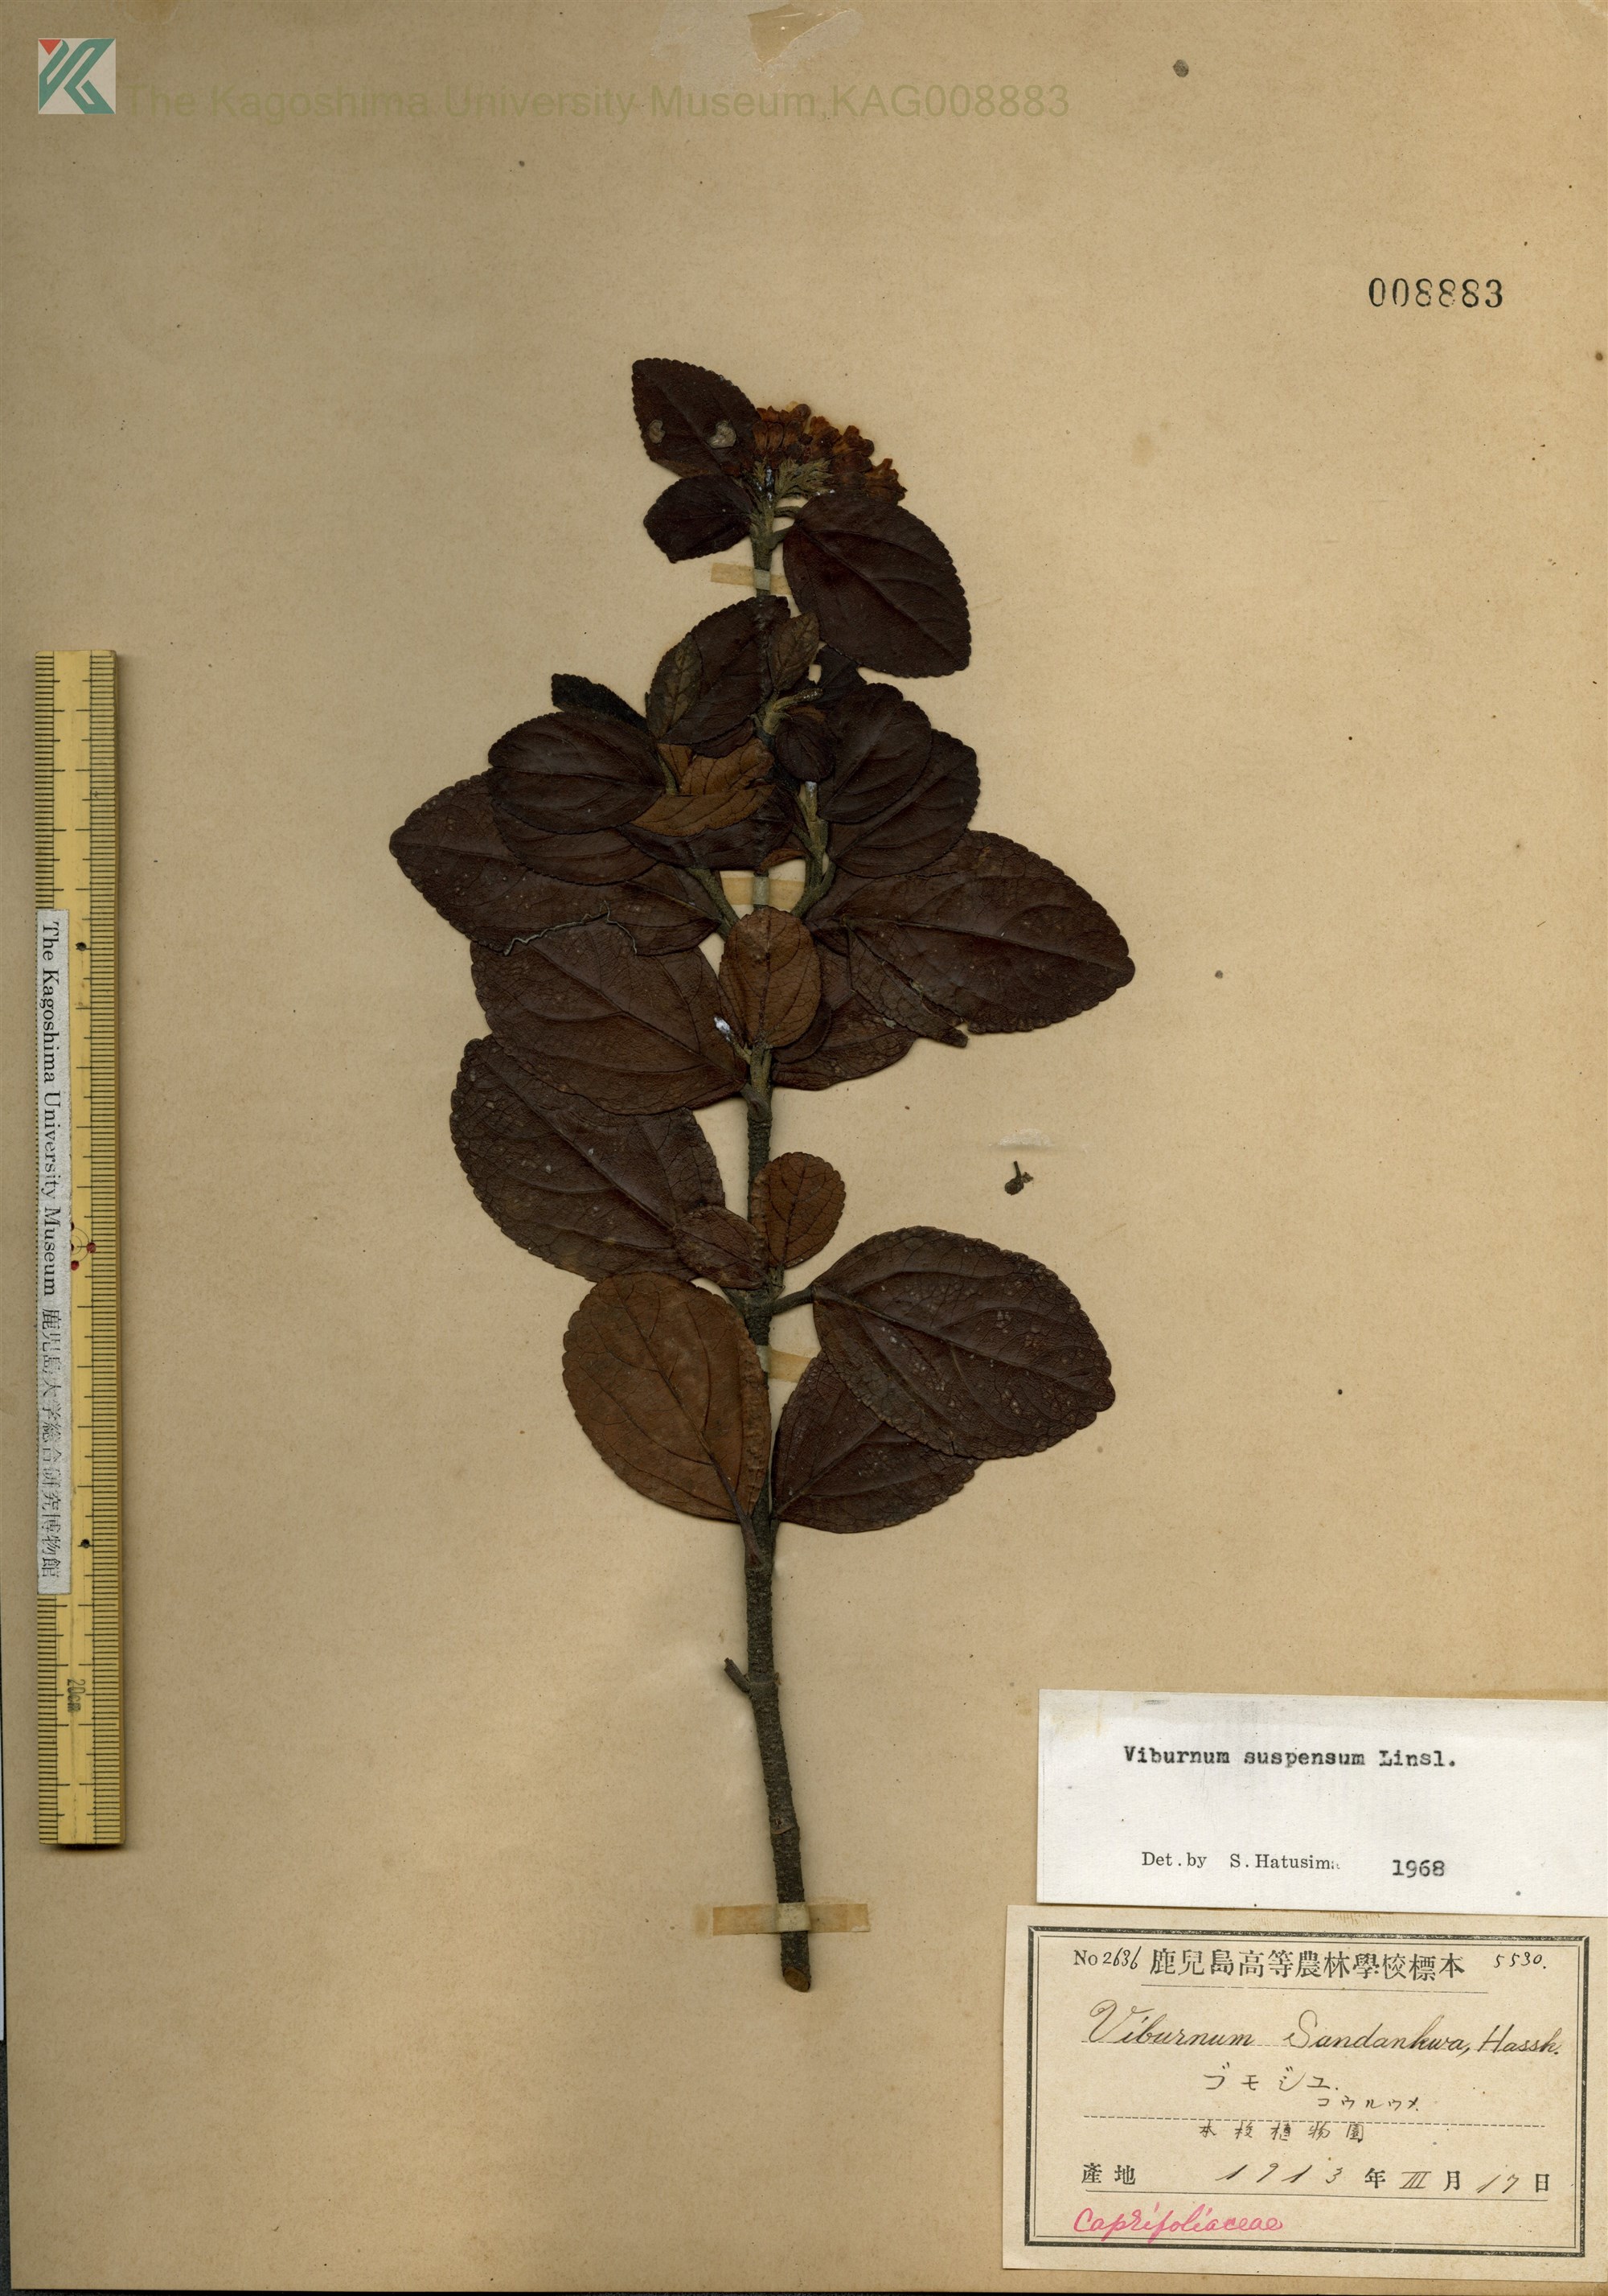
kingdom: Plantae
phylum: Tracheophyta
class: Magnoliopsida
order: Dipsacales
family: Viburnaceae
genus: Viburnum
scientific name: Viburnum suspensum
